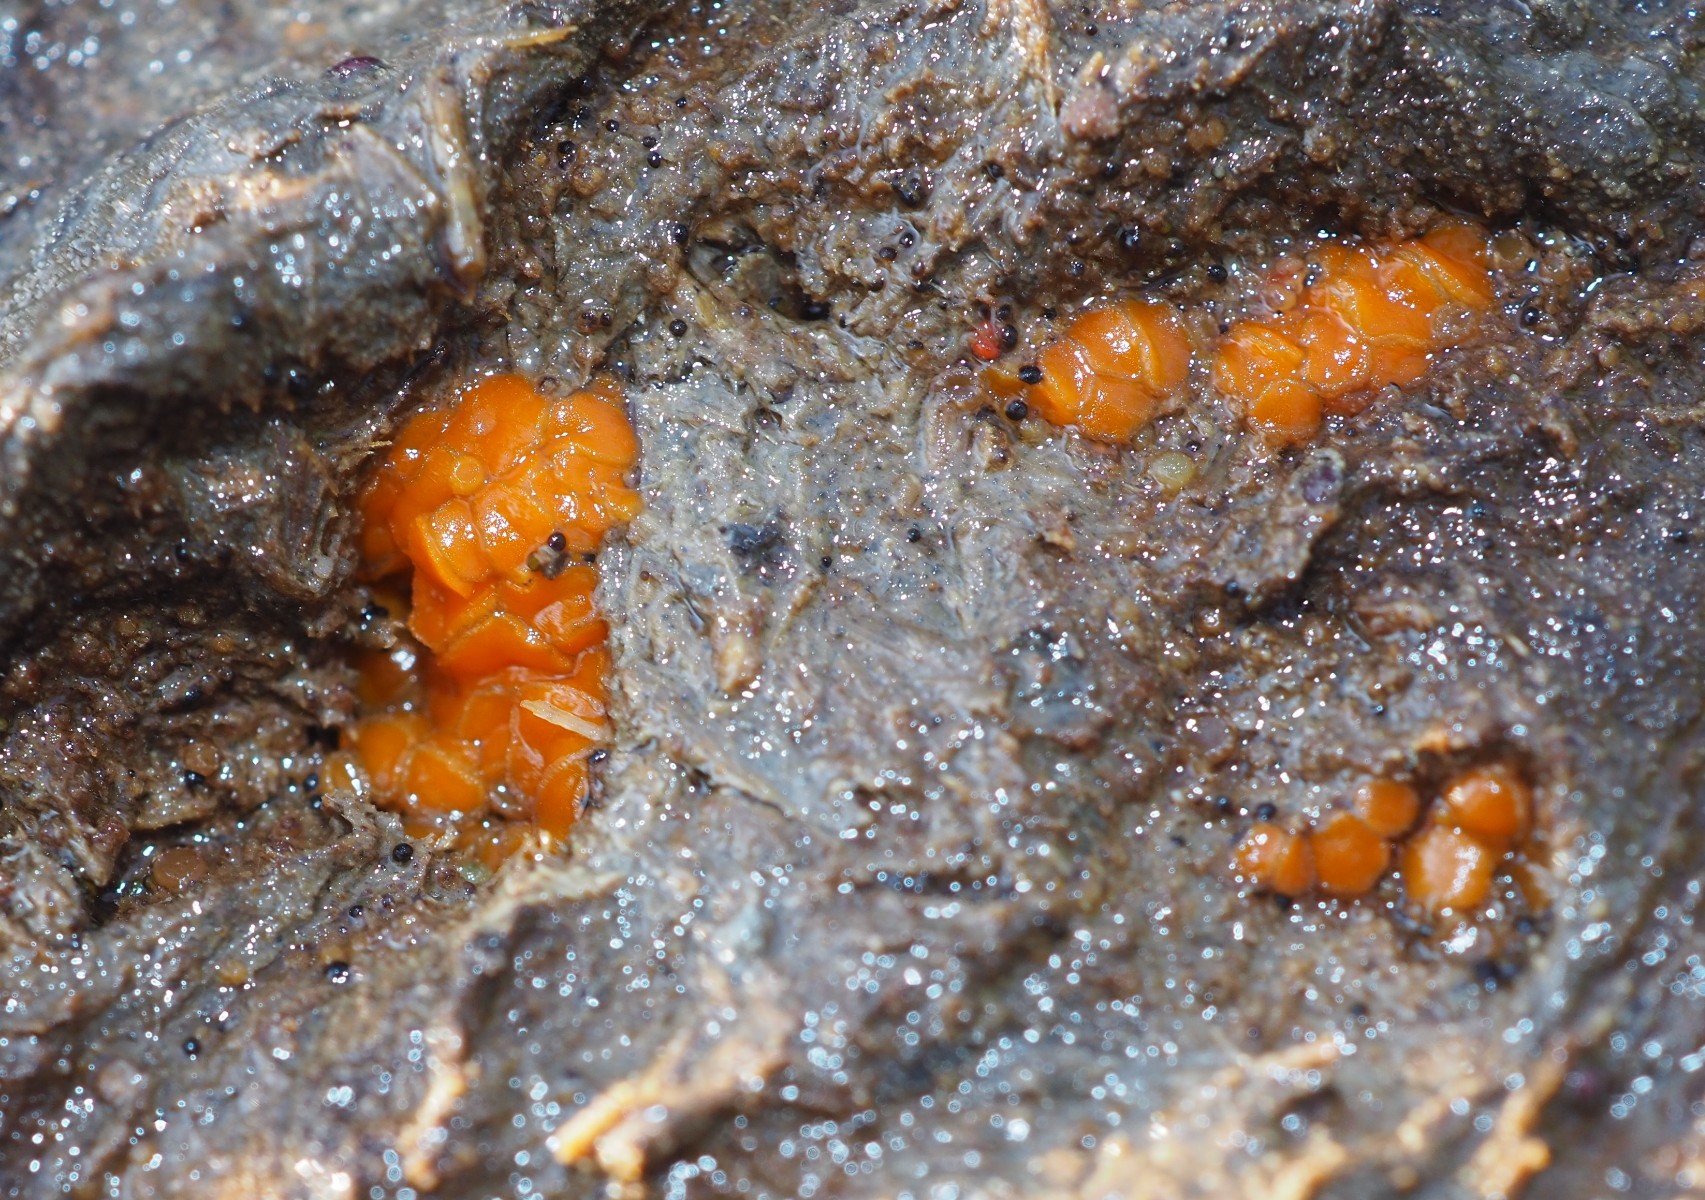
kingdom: Fungi
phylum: Ascomycota
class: Pezizomycetes
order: Pezizales
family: Pyronemataceae
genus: Cheilymenia
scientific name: Cheilymenia granulata
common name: møgbæger
